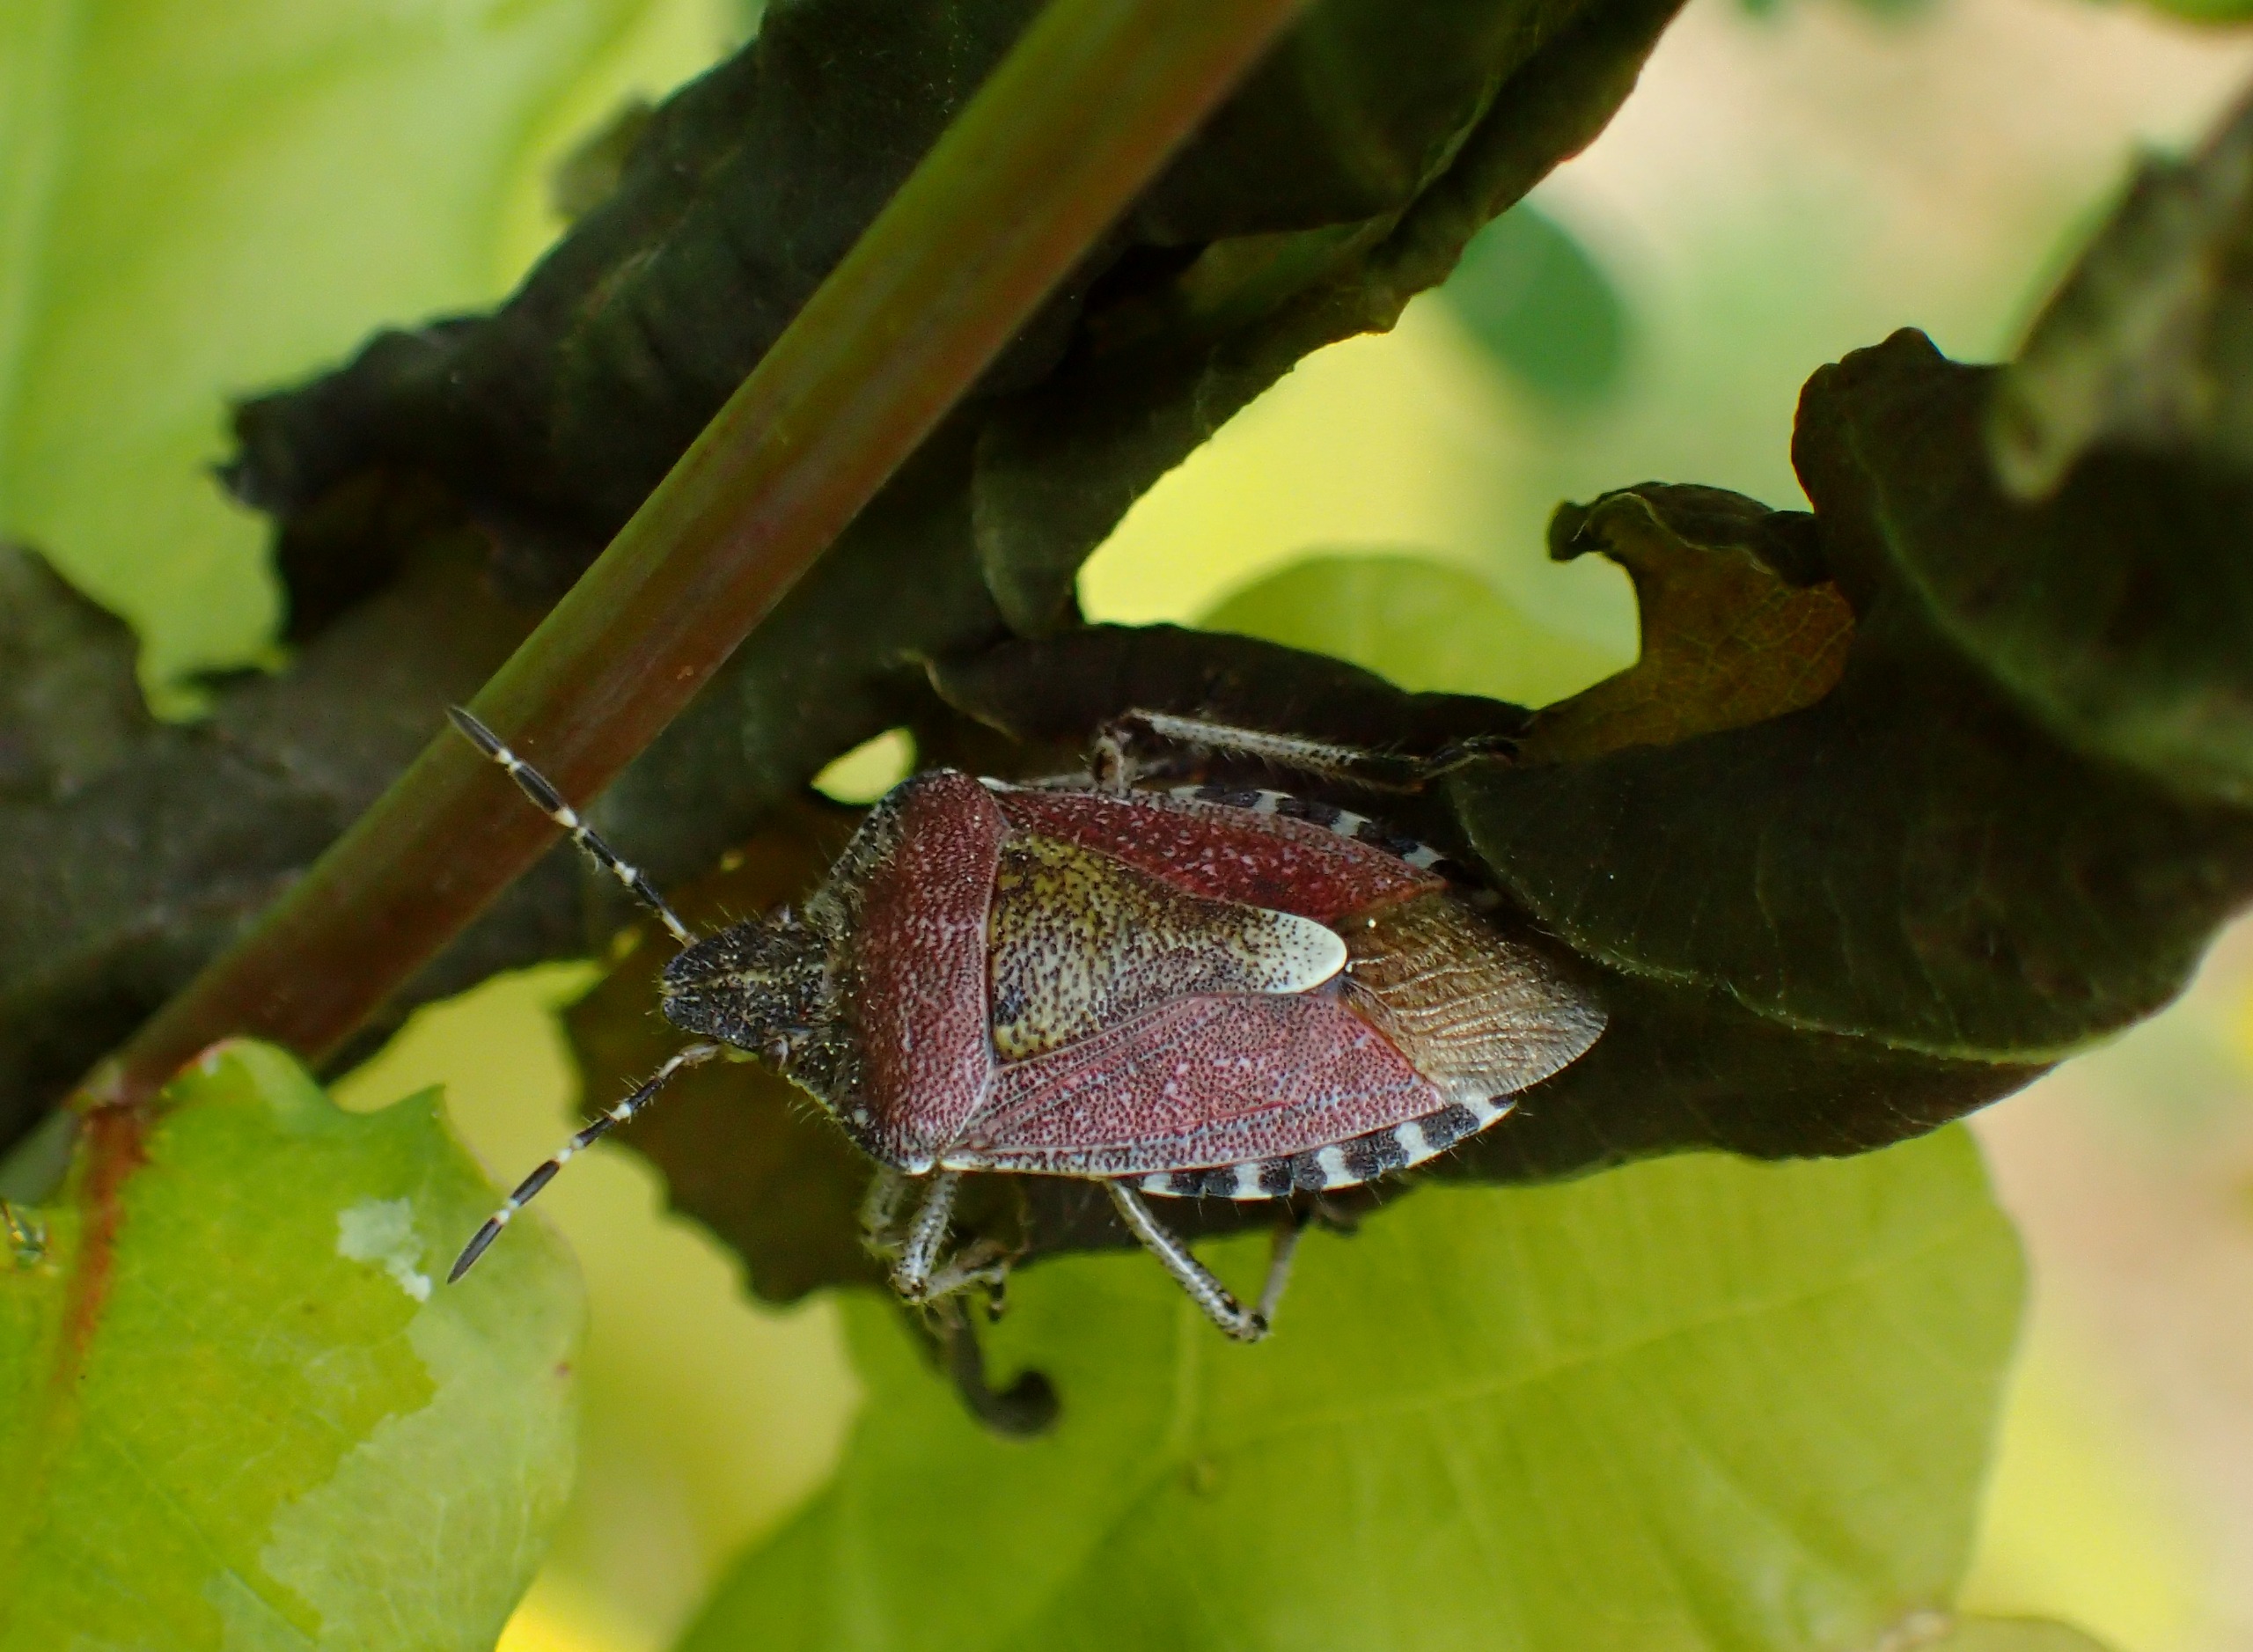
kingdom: Animalia
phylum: Arthropoda
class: Insecta
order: Hemiptera
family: Pentatomidae
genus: Dolycoris
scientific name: Dolycoris baccarum
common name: Almindelig bærtæge
